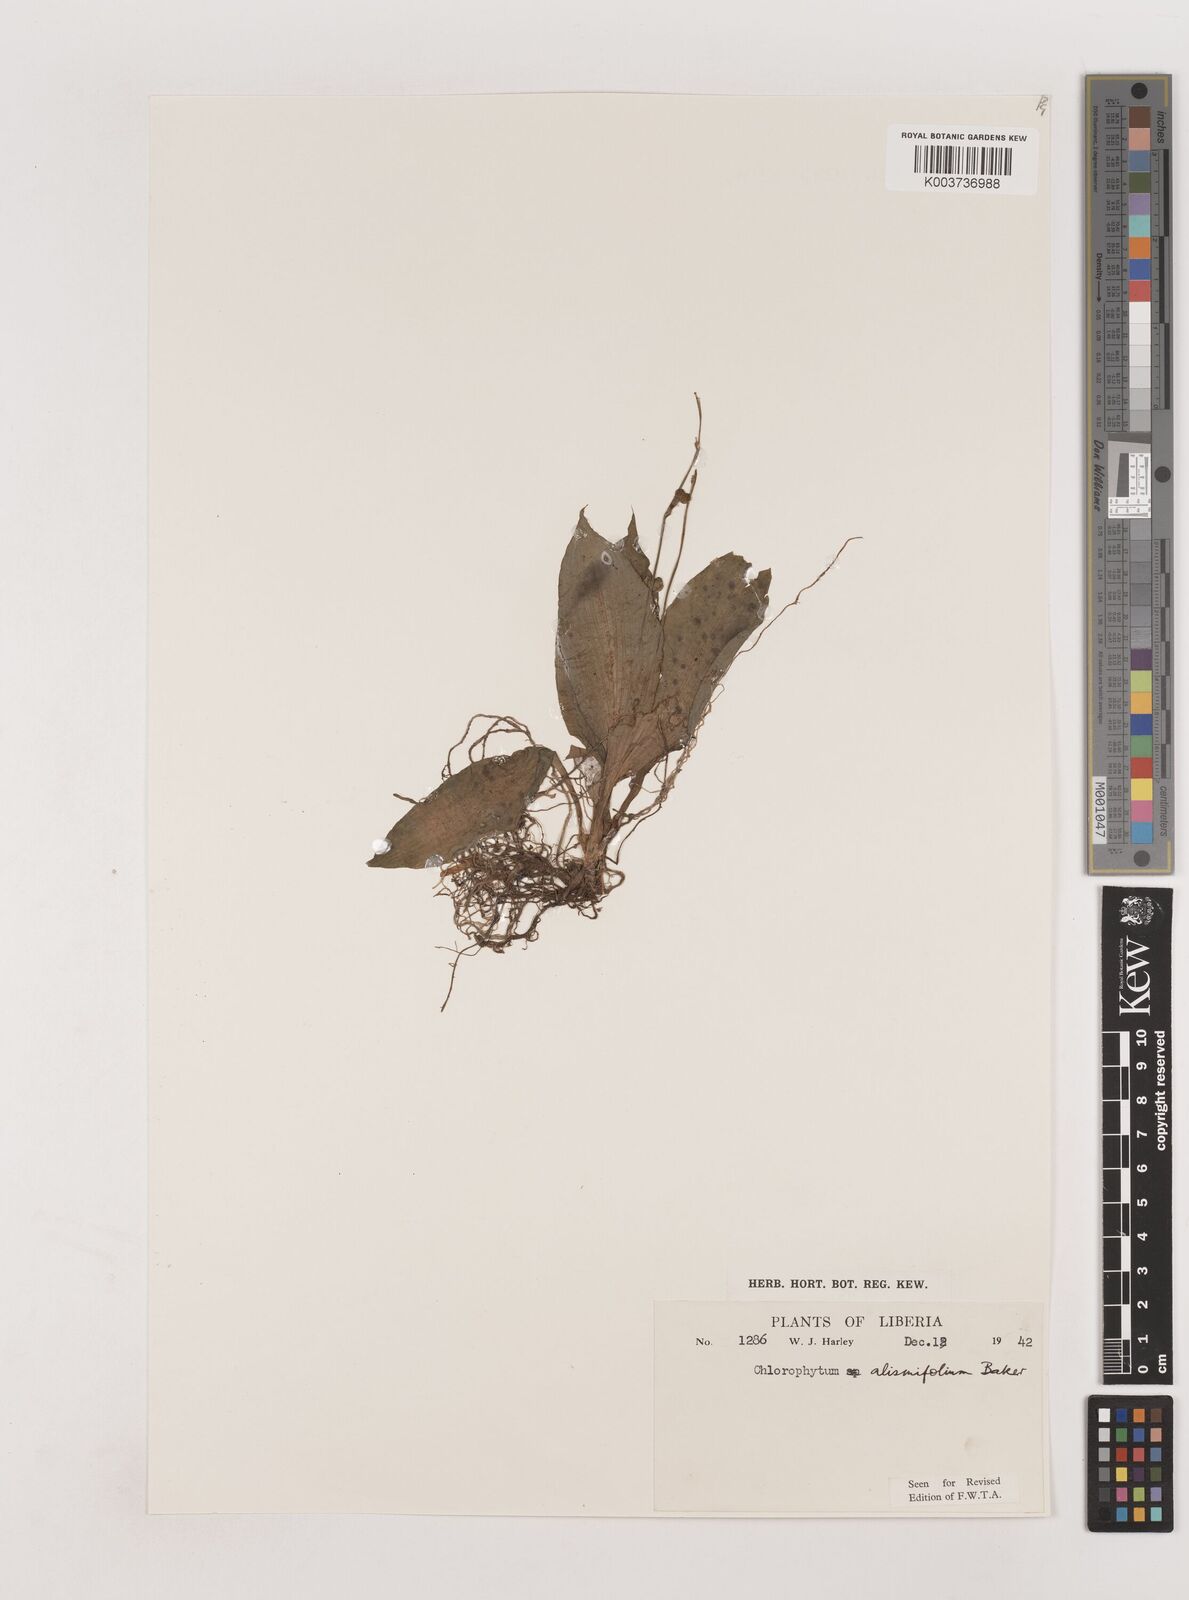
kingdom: Plantae
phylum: Tracheophyta
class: Liliopsida
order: Asparagales
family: Asparagaceae
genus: Chlorophytum
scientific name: Chlorophytum alismifolium
